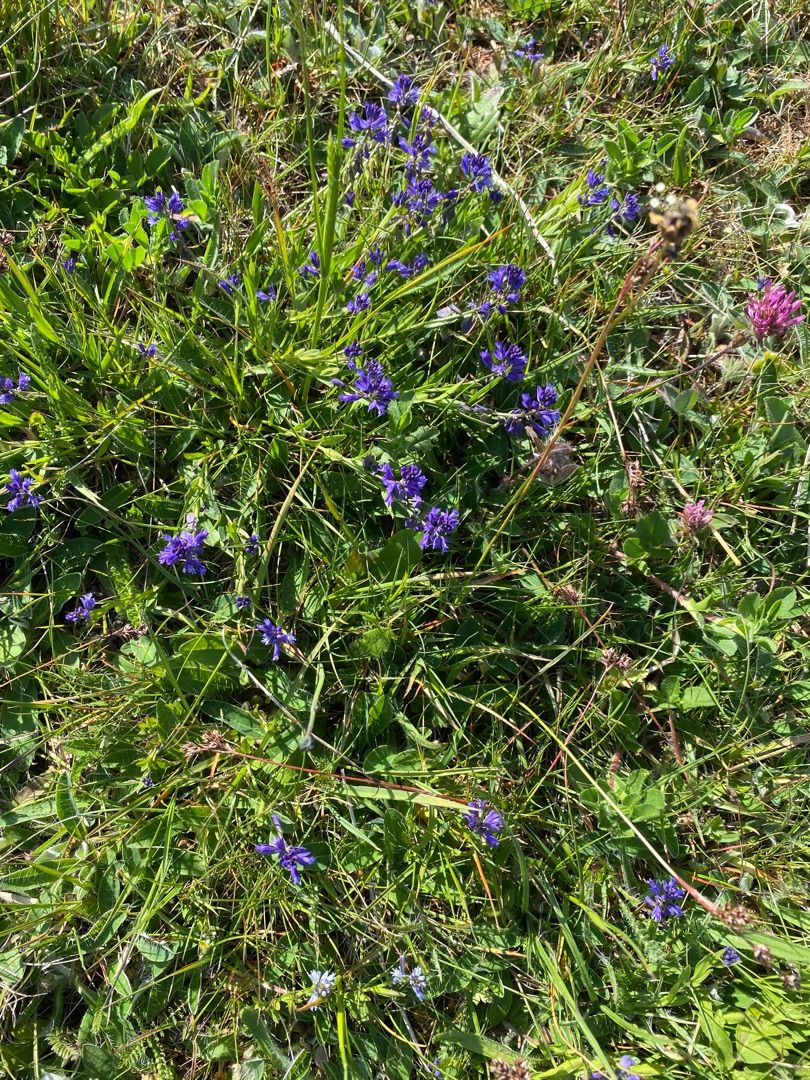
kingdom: Plantae
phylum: Tracheophyta
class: Magnoliopsida
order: Fabales
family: Polygalaceae
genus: Polygala
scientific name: Polygala vulgaris
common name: Almindelig mælkeurt
